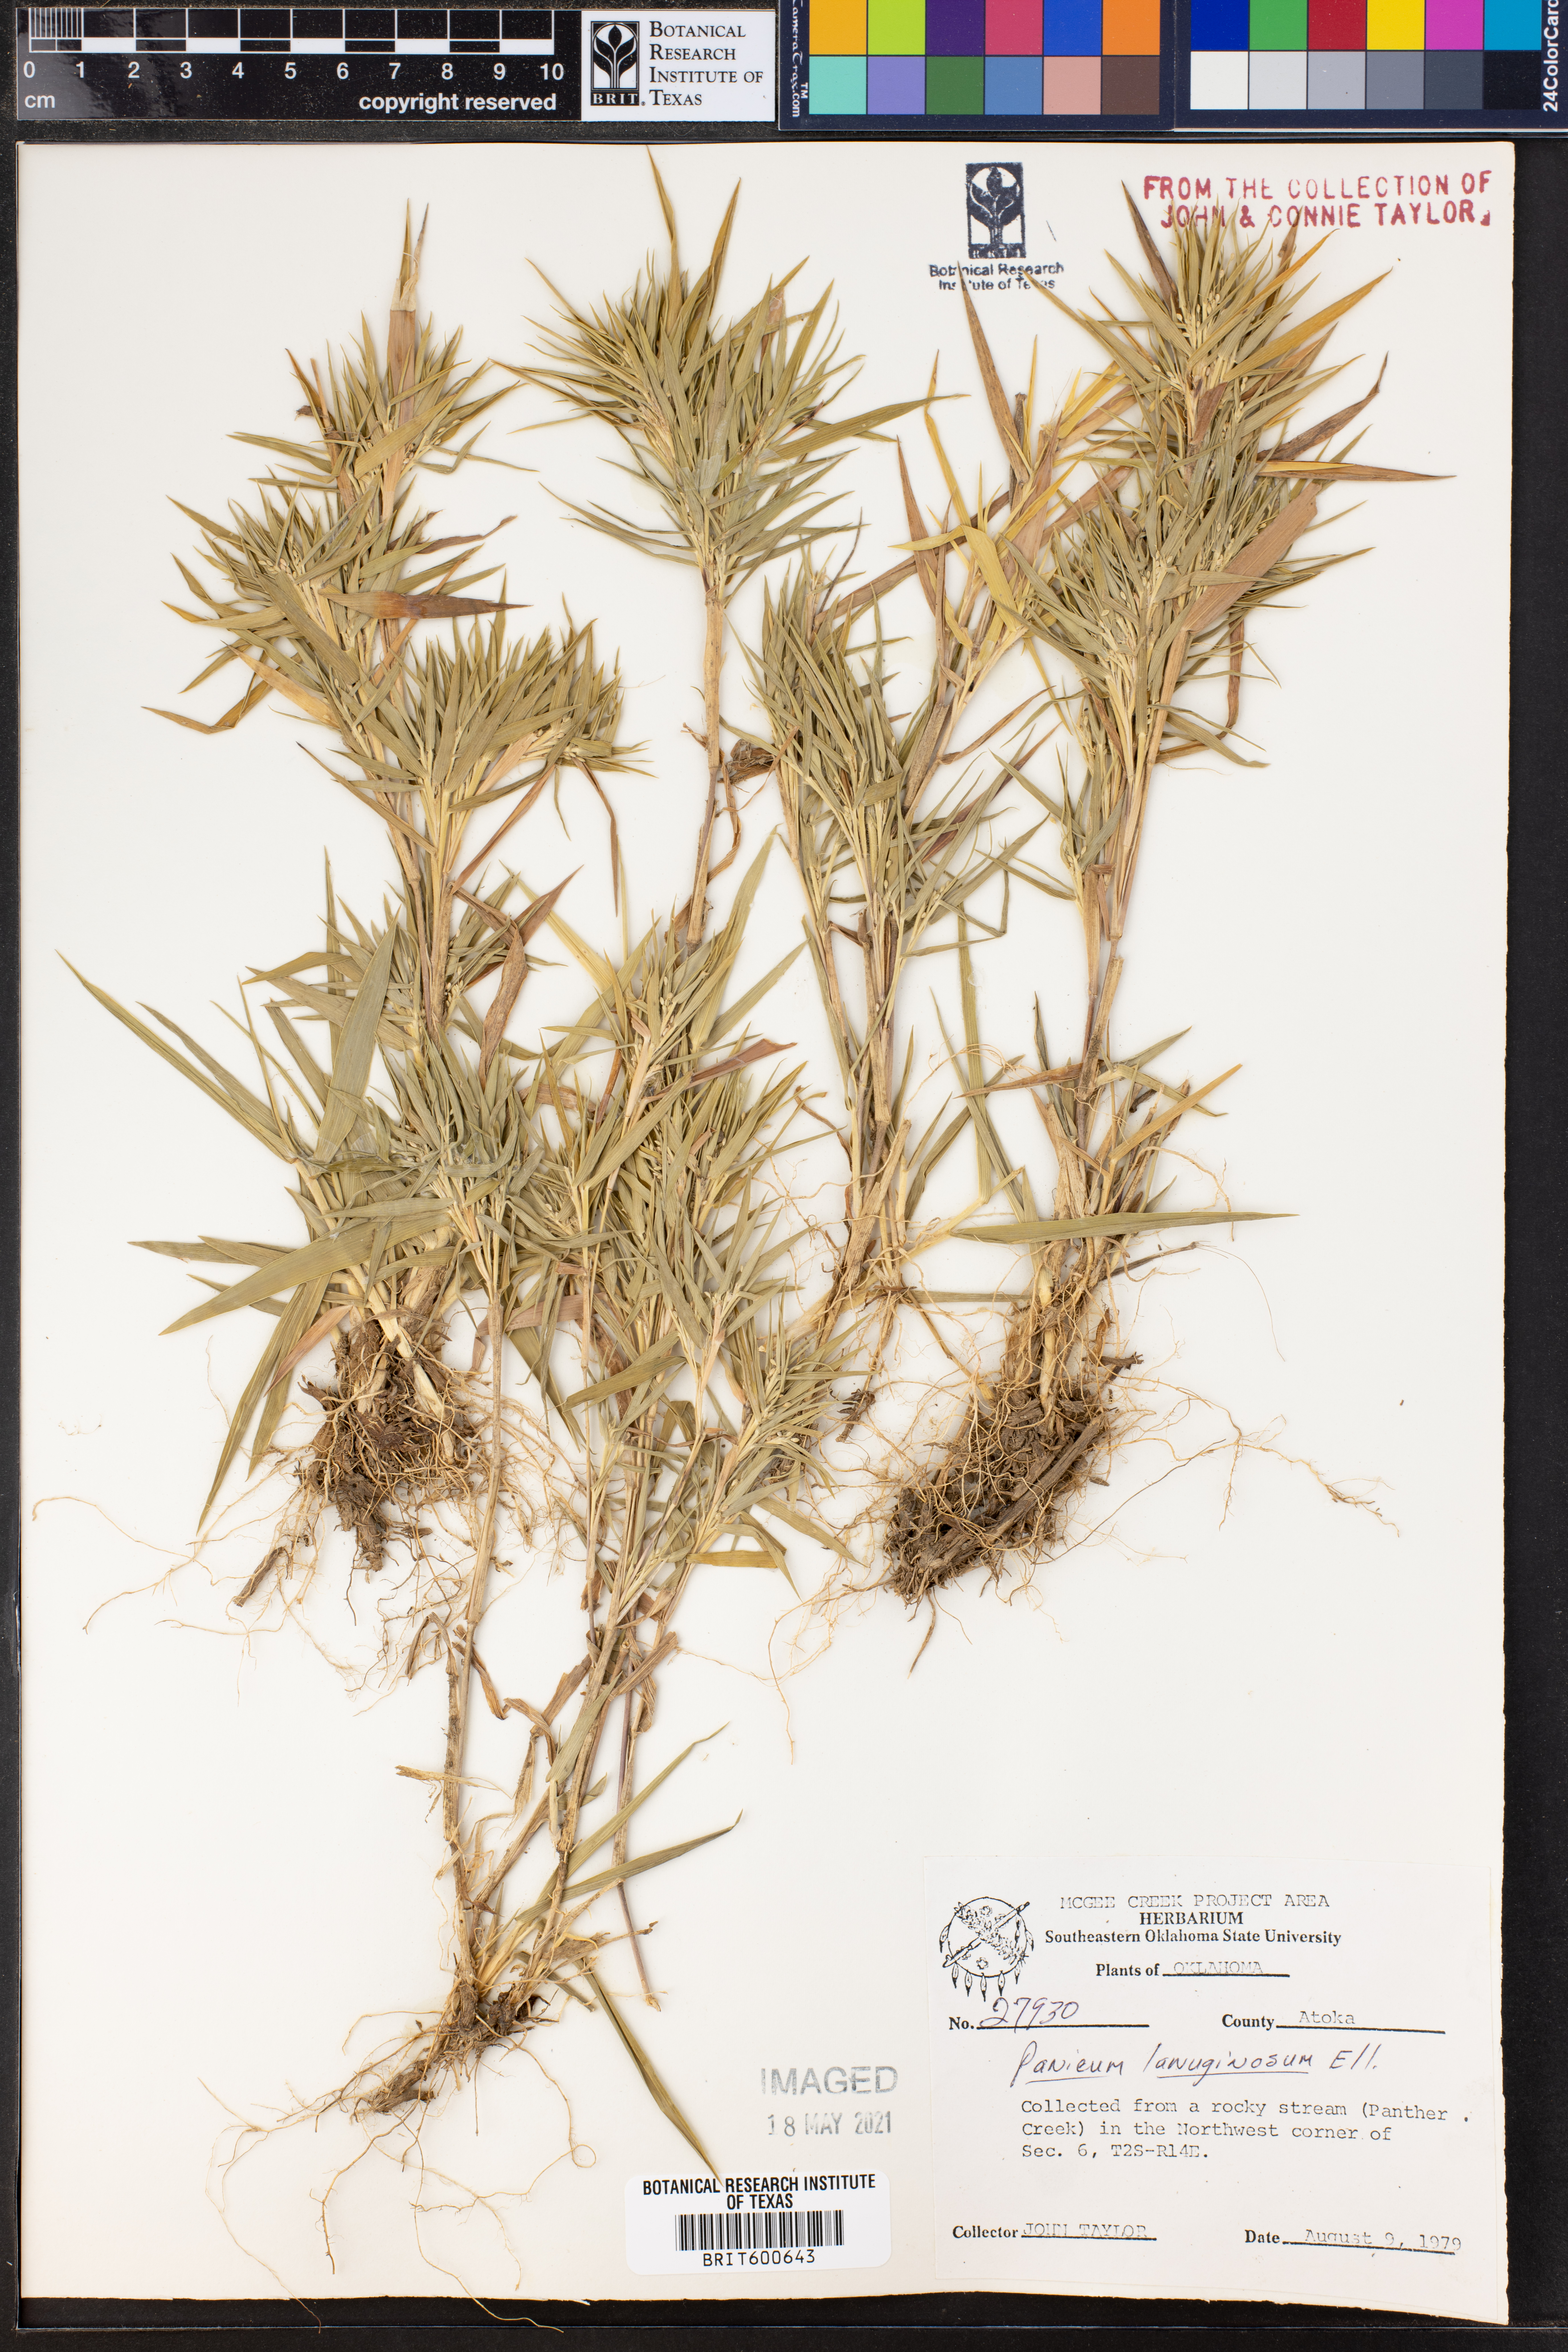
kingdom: Plantae
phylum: Tracheophyta
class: Liliopsida
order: Poales
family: Poaceae
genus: Dichanthelium
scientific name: Dichanthelium lanuginosum
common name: Woolly panicgrass
